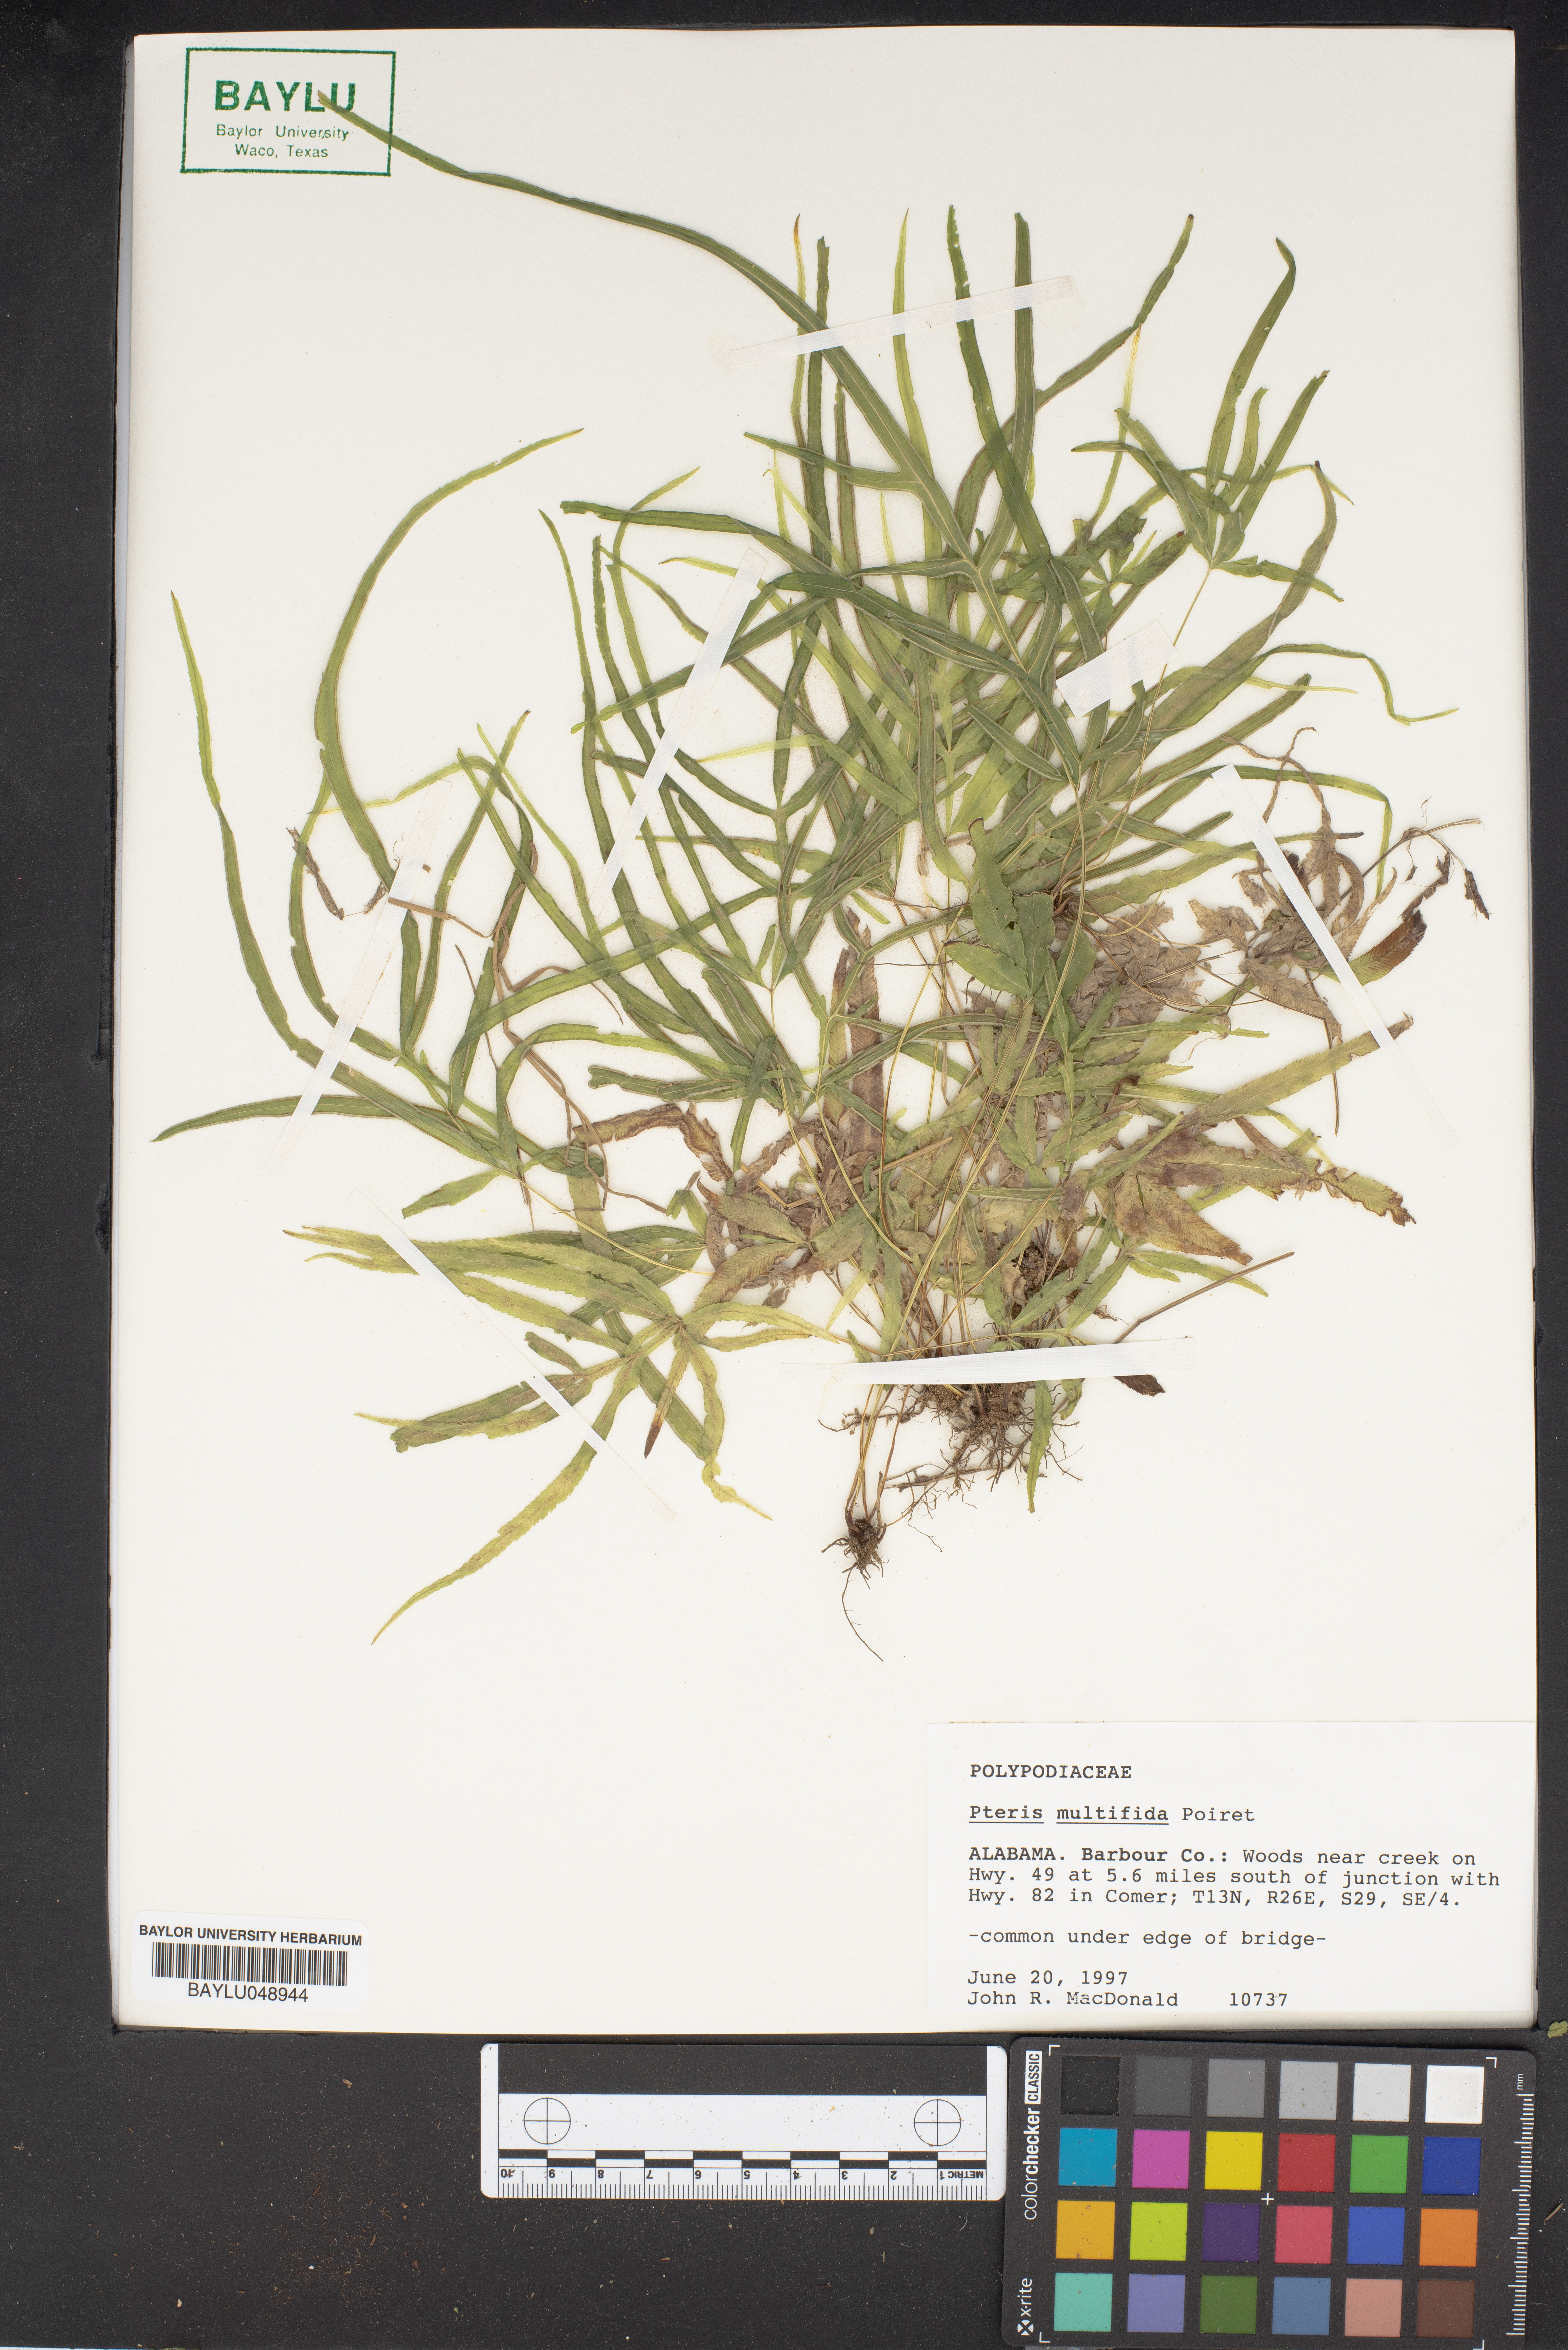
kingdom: Plantae
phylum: Tracheophyta
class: Polypodiopsida
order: Polypodiales
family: Pteridaceae
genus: Pteris
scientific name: Pteris multifida
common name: Spider brake
